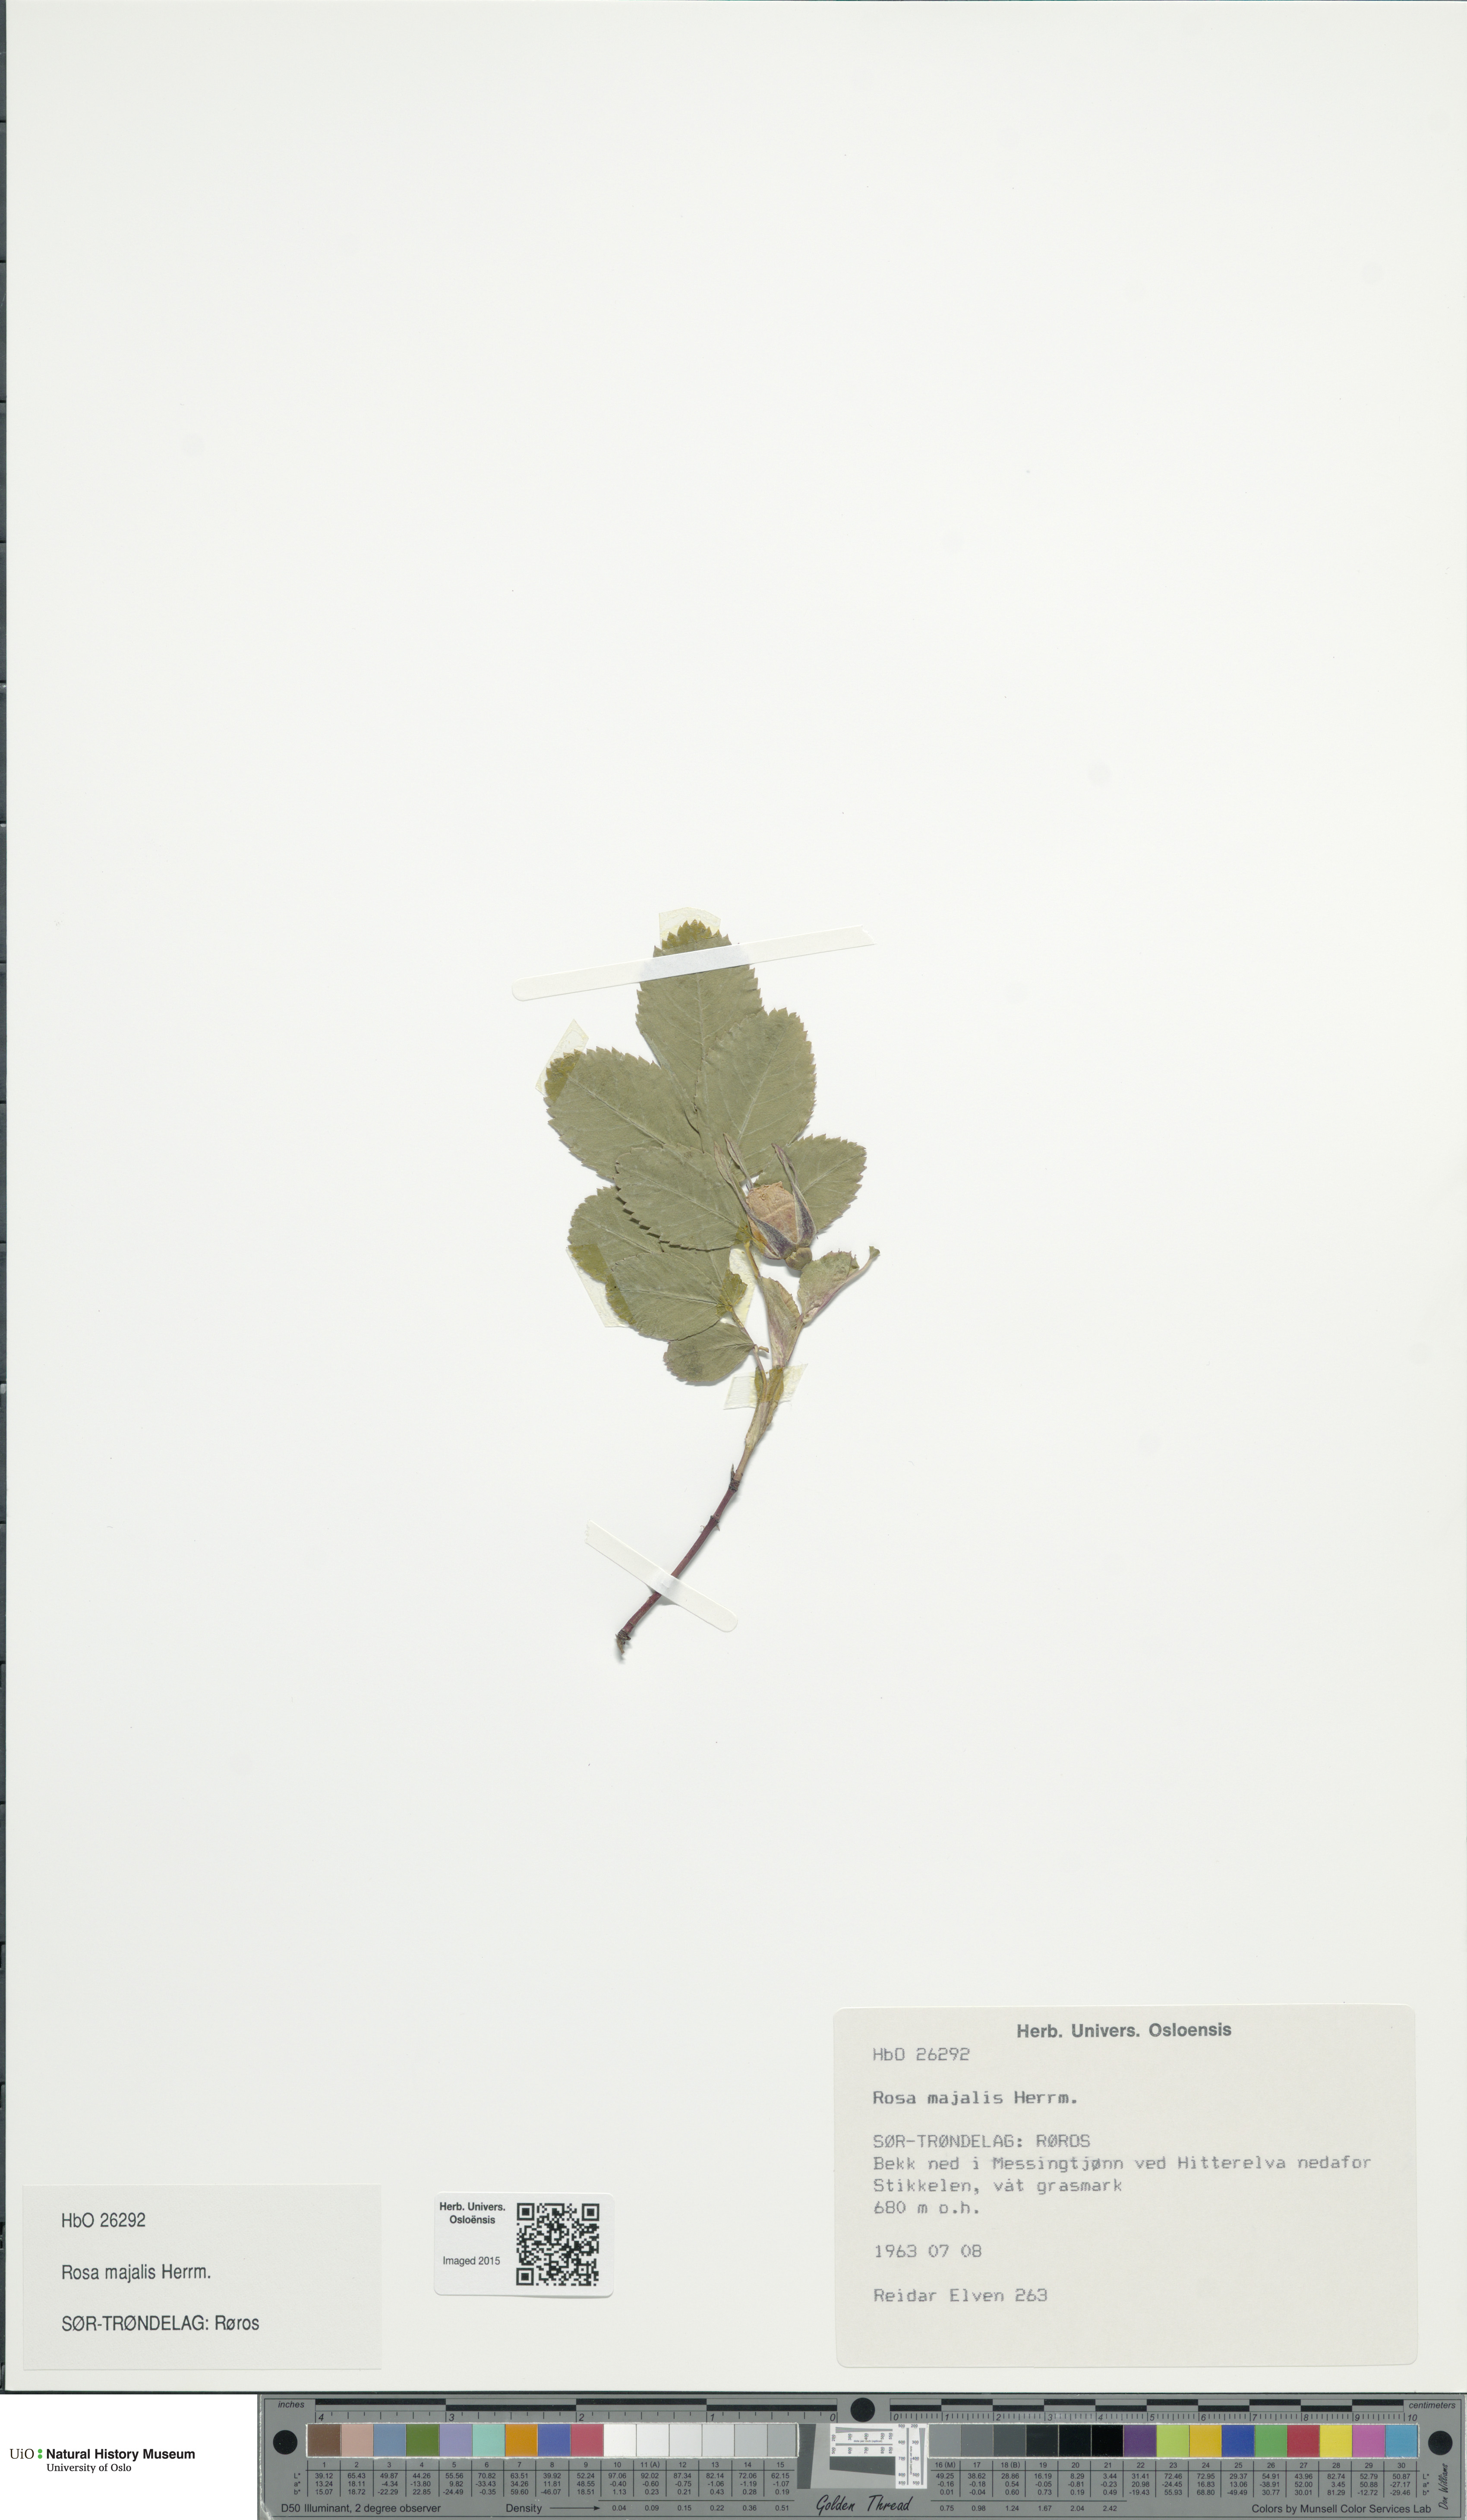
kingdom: Plantae
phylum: Tracheophyta
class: Magnoliopsida
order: Rosales
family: Rosaceae
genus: Rosa
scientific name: Rosa majalis
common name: Cinnamon rose
